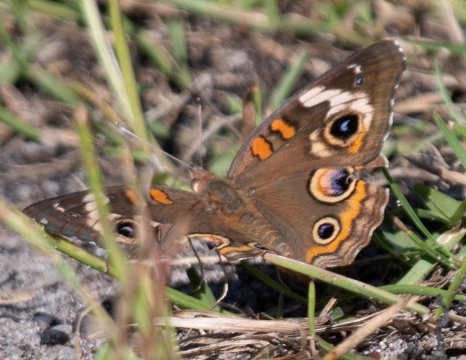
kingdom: Animalia
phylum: Arthropoda
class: Insecta
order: Lepidoptera
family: Nymphalidae
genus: Junonia
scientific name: Junonia coenia
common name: Common Buckeye
